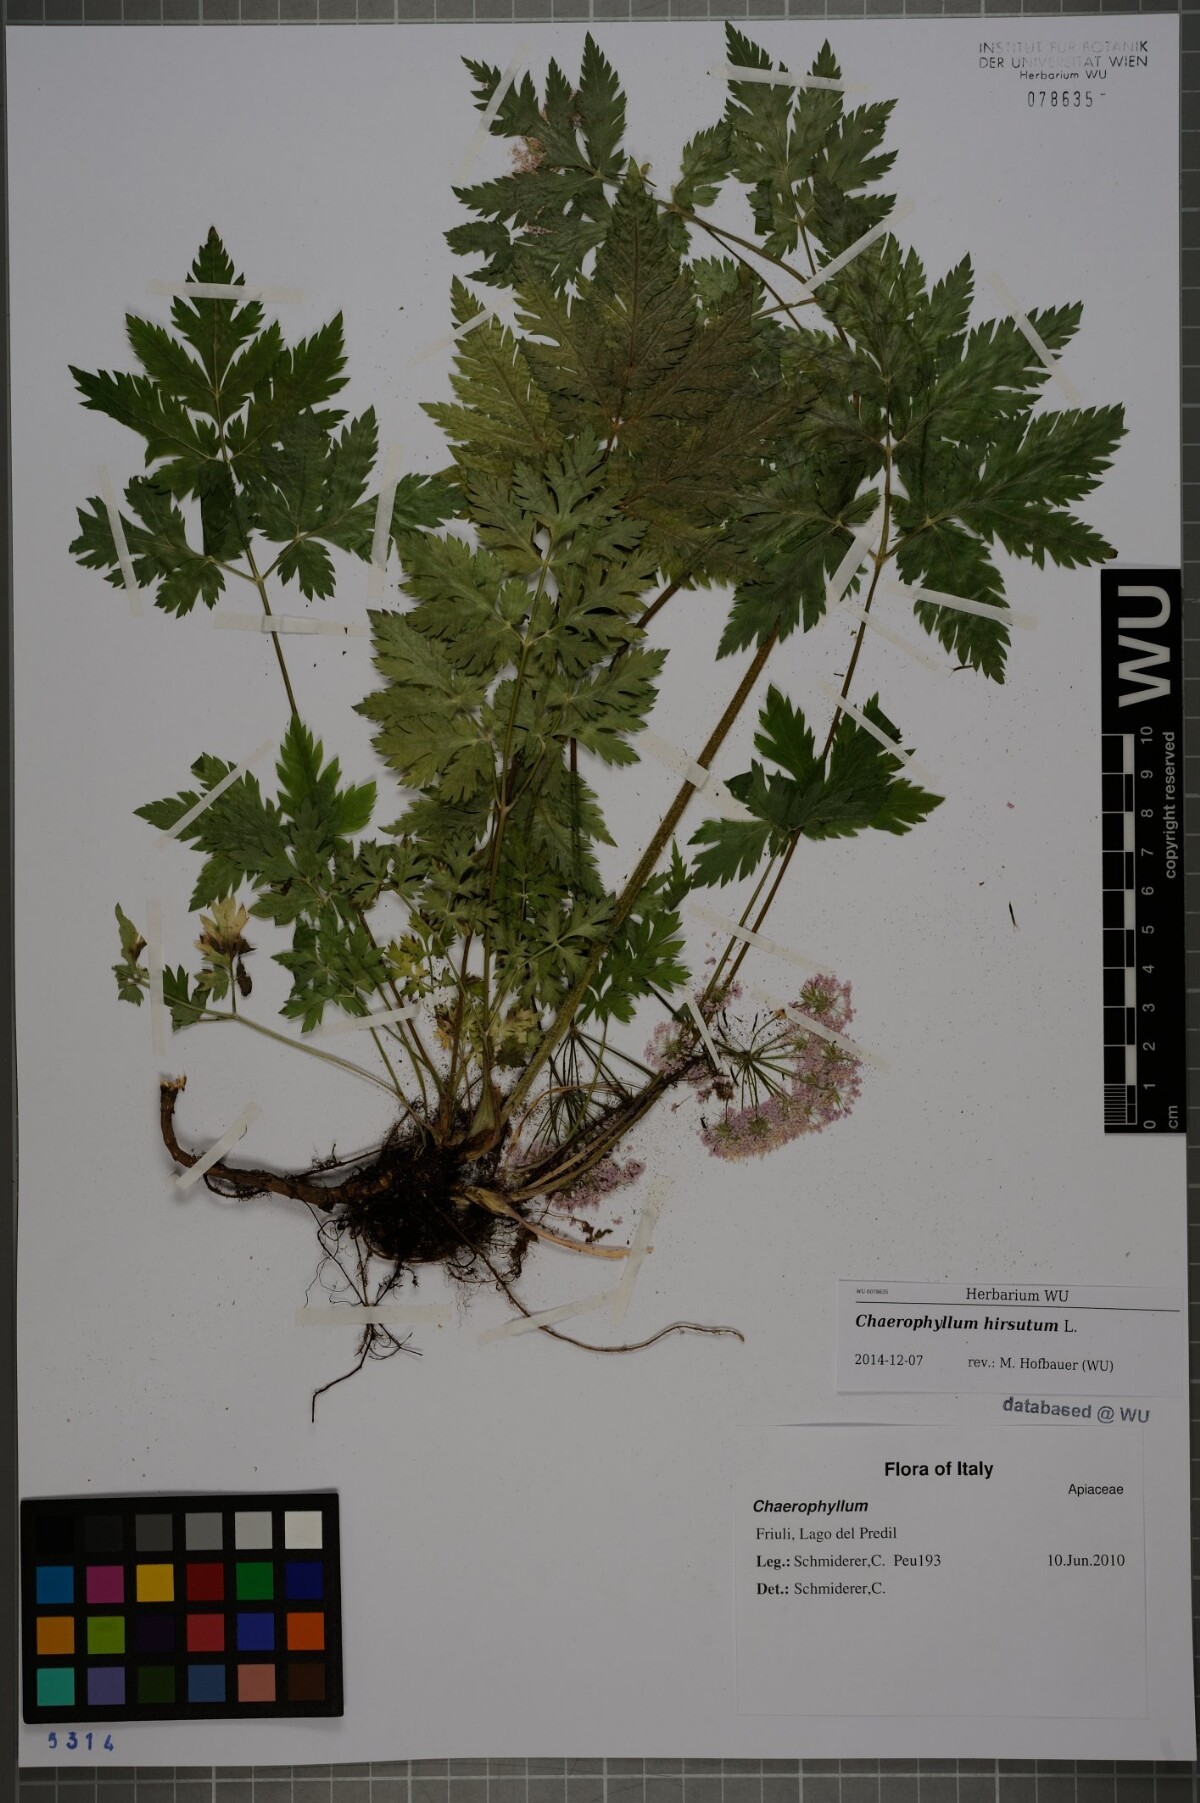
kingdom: Plantae
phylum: Tracheophyta
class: Magnoliopsida
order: Apiales
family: Apiaceae
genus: Chaerophyllum
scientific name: Chaerophyllum hirsutum
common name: Hairy chervil
